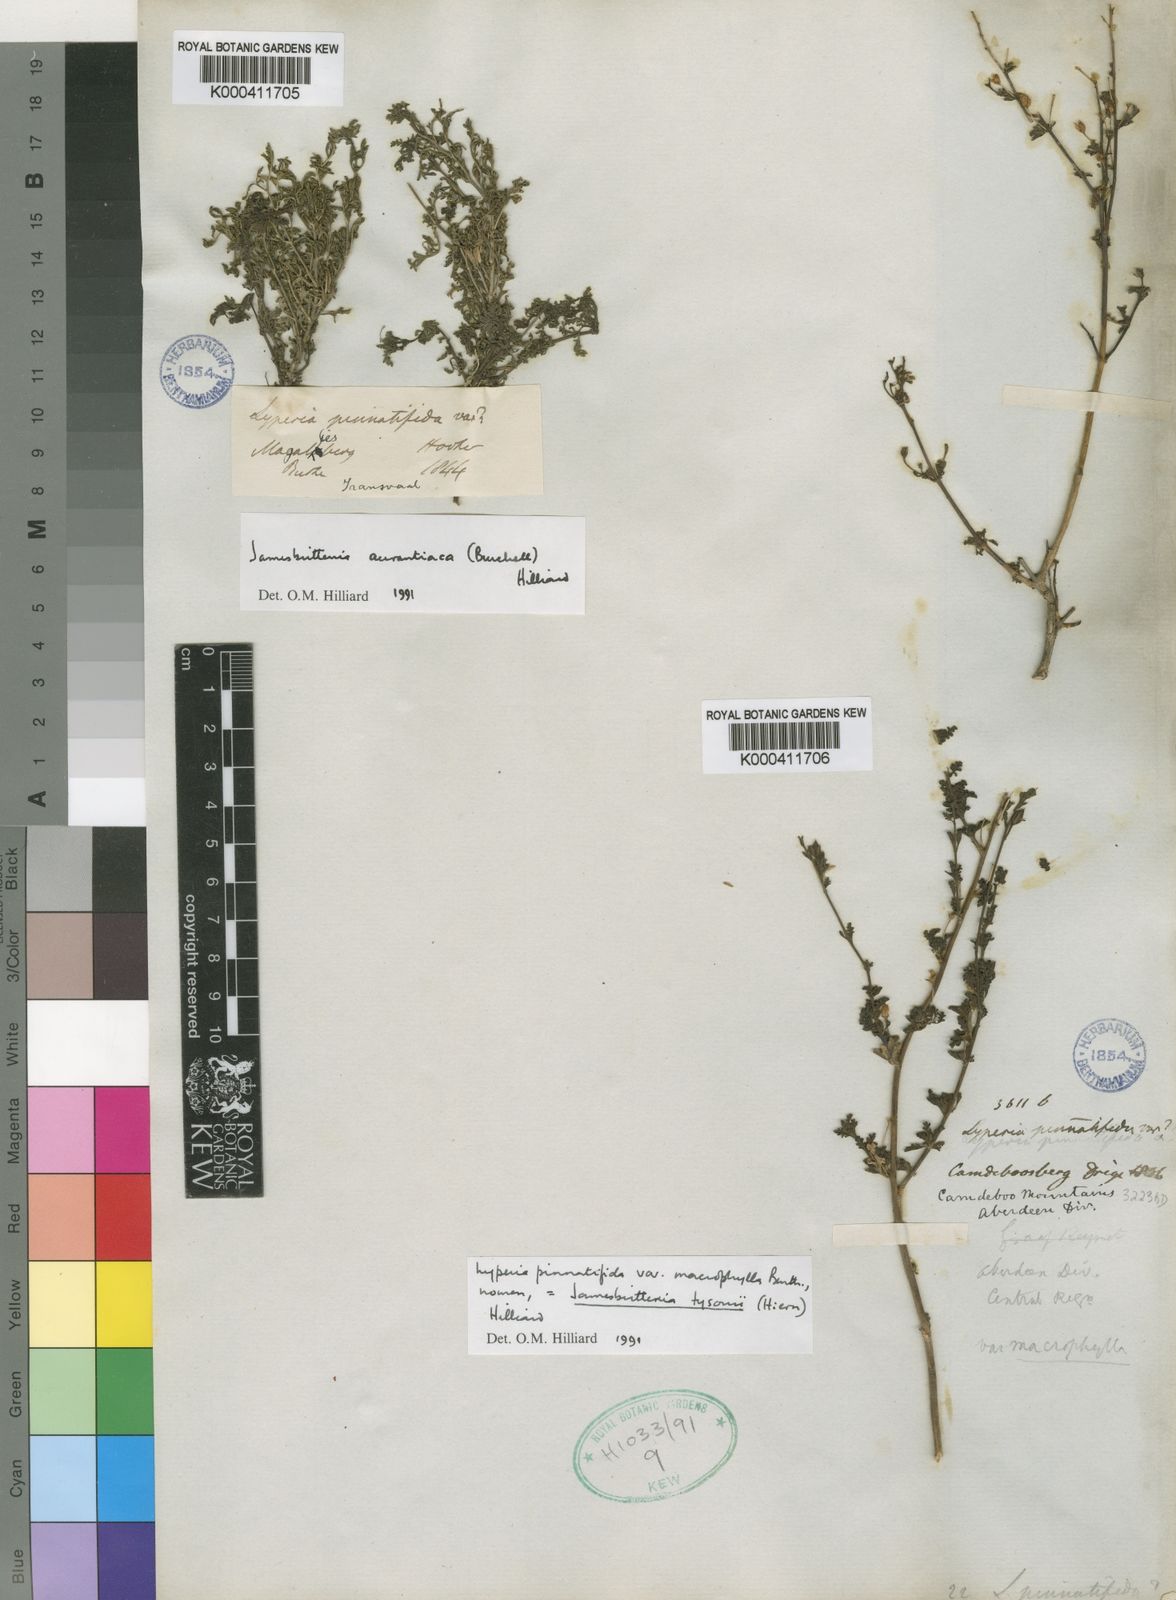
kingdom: Plantae
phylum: Tracheophyta
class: Magnoliopsida
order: Lamiales
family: Scrophulariaceae
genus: Jamesbrittenia
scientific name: Jamesbrittenia tysonii
